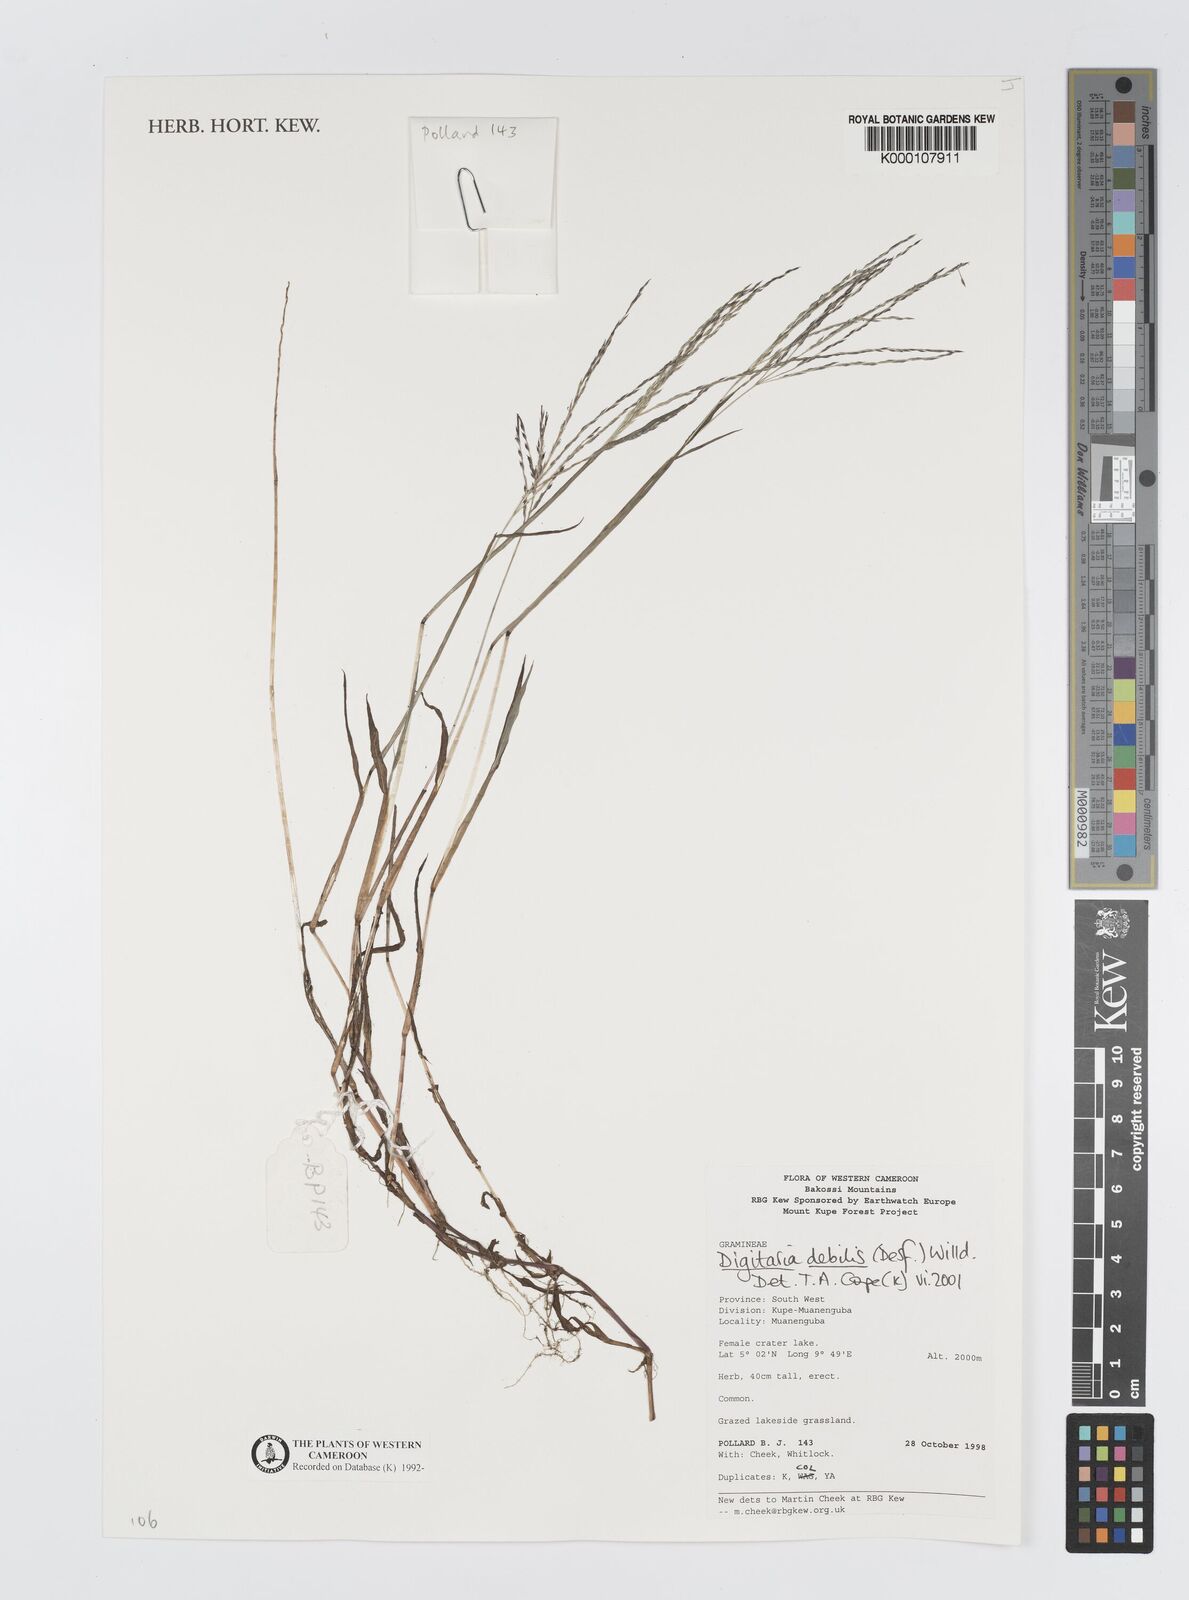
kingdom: Plantae
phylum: Tracheophyta
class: Liliopsida
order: Poales
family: Poaceae
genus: Digitaria
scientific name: Digitaria debilis
